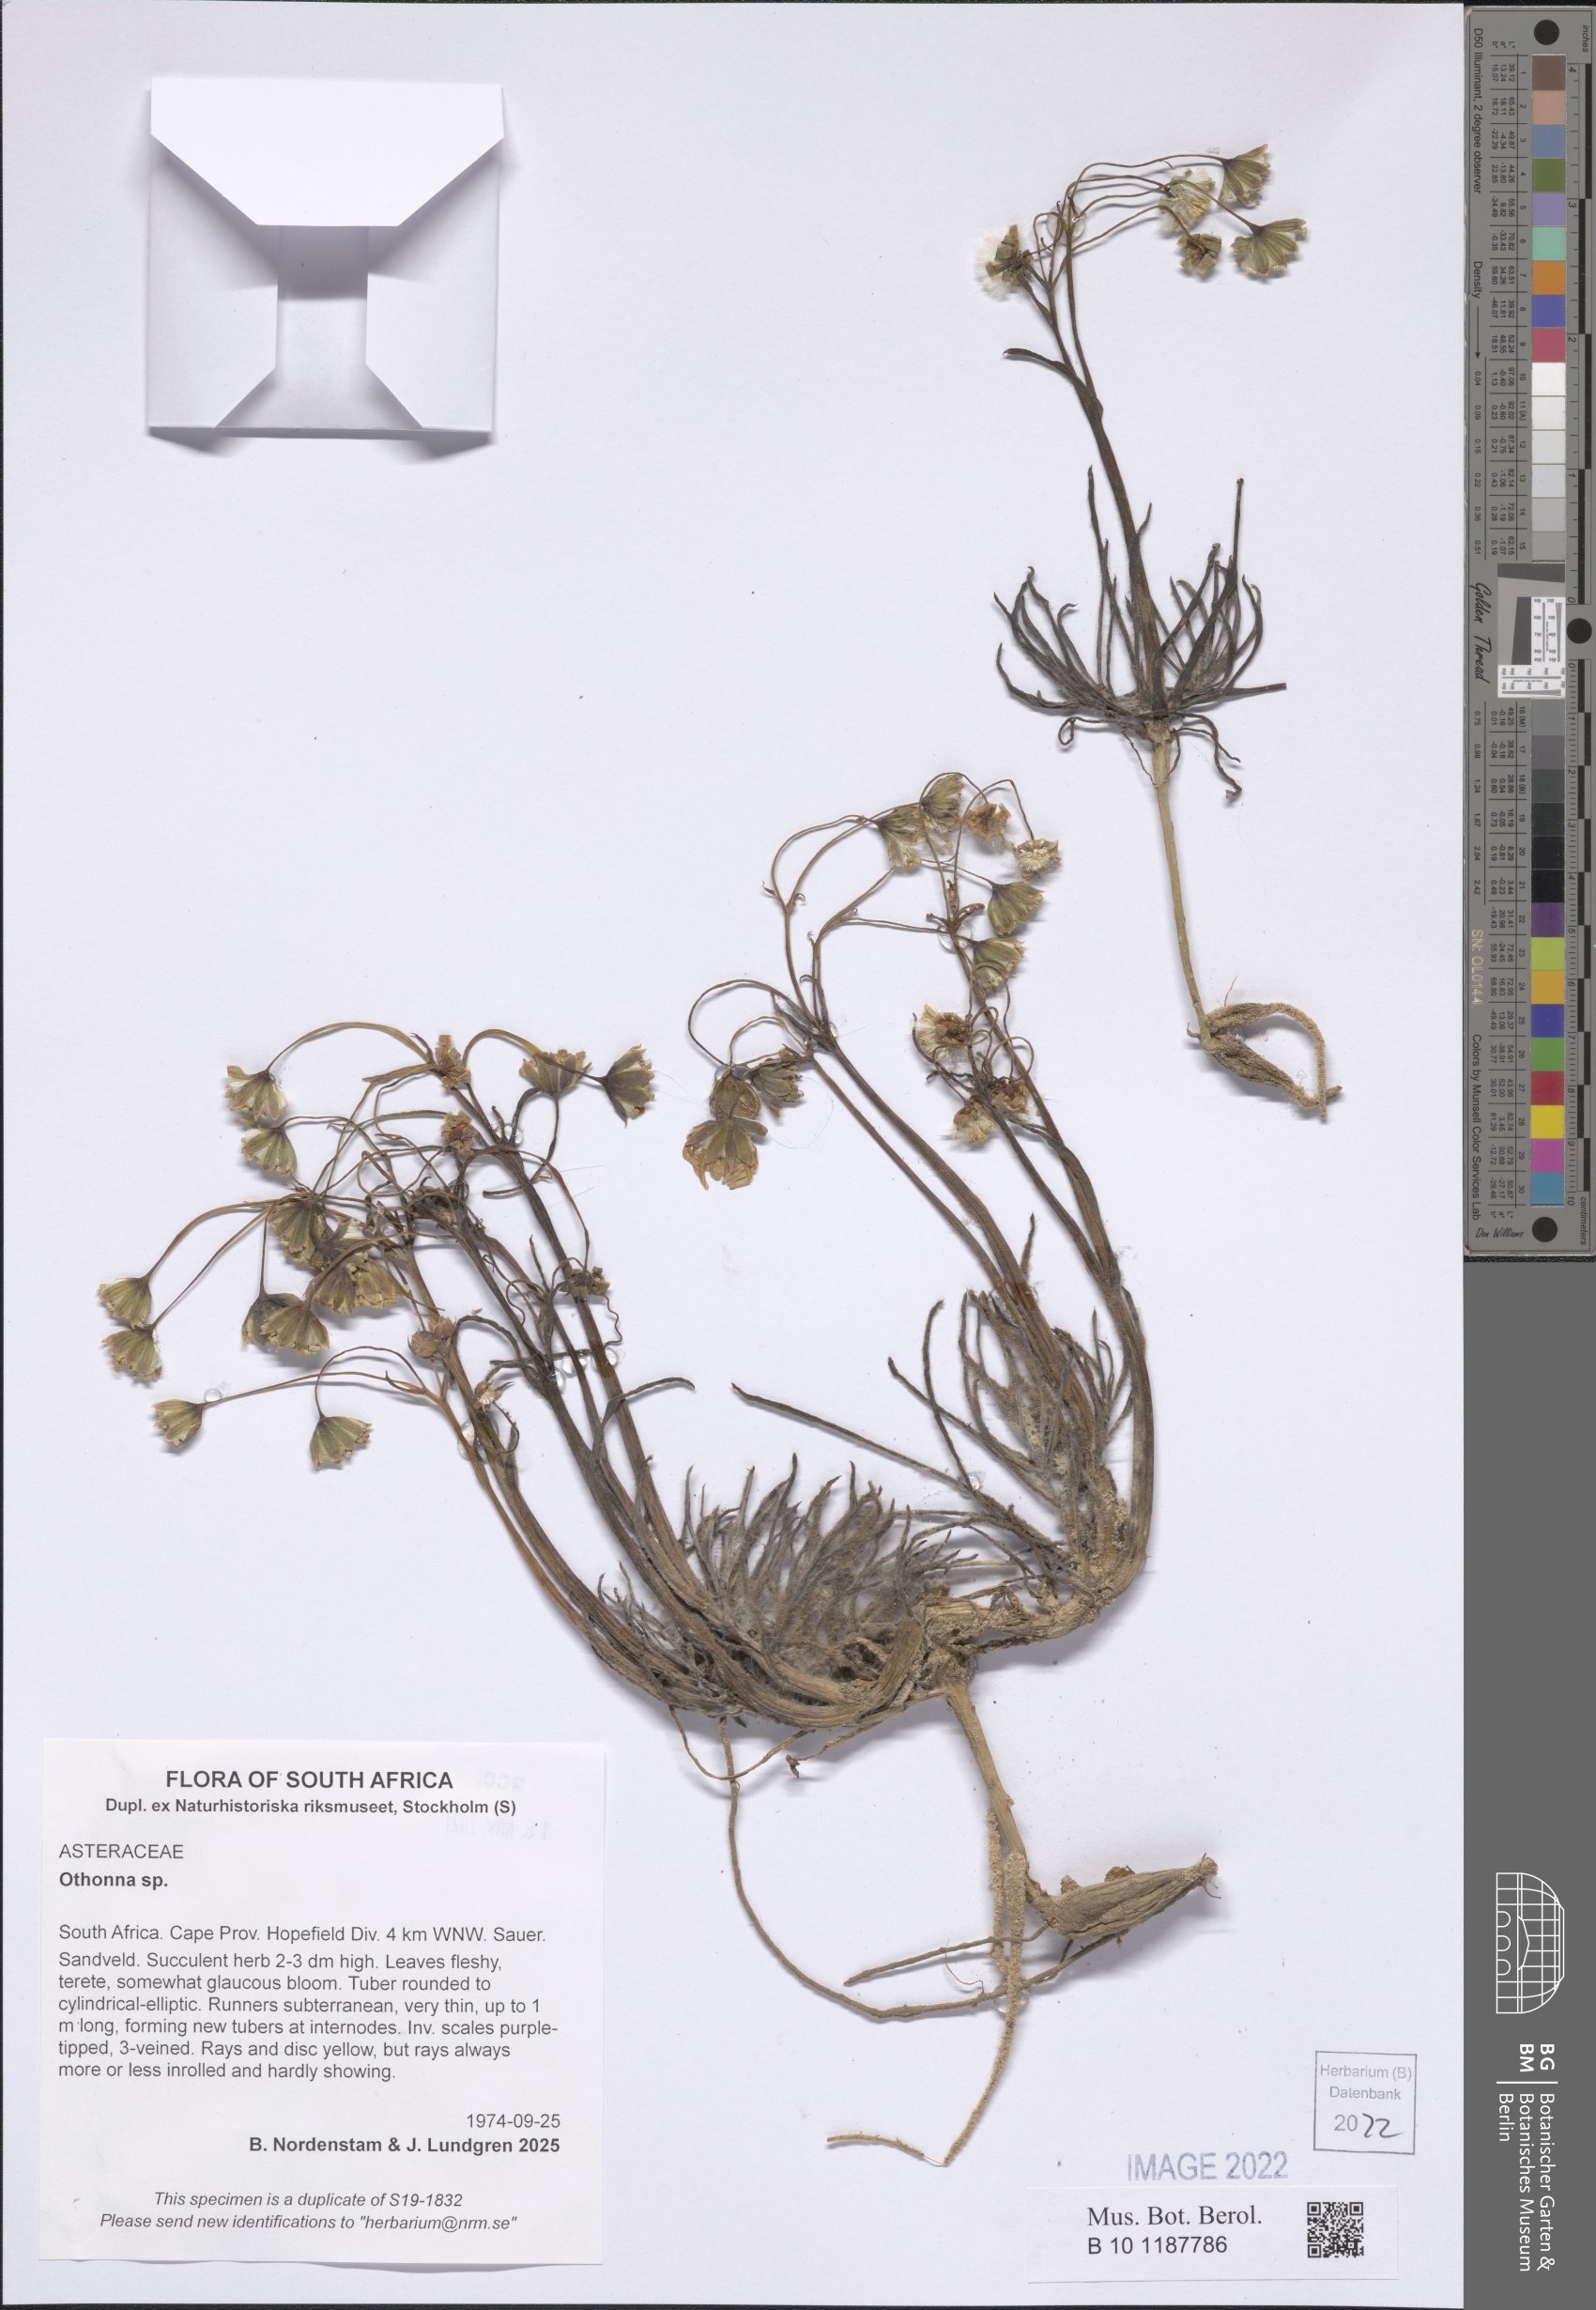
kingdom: Plantae
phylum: Tracheophyta
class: Magnoliopsida
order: Asterales
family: Asteraceae
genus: Othonna
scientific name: Othonna
